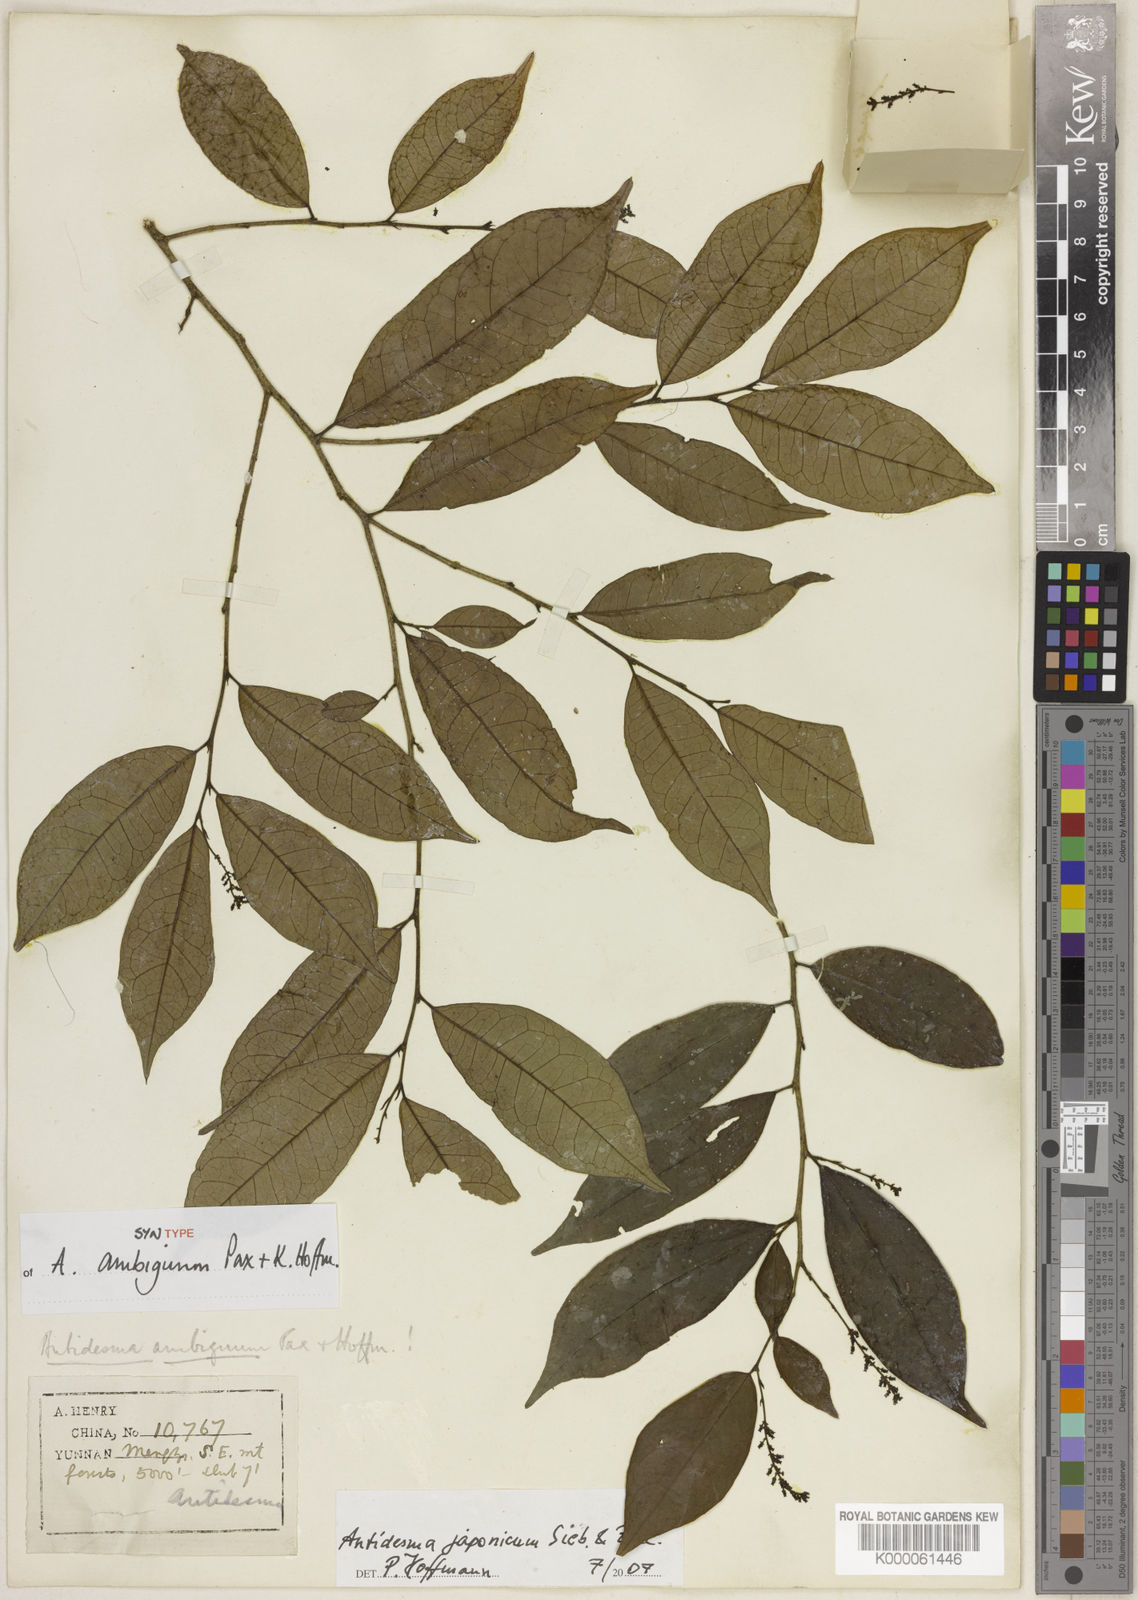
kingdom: Plantae
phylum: Tracheophyta
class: Magnoliopsida
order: Malpighiales
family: Phyllanthaceae
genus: Antidesma
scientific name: Antidesma japonicum
